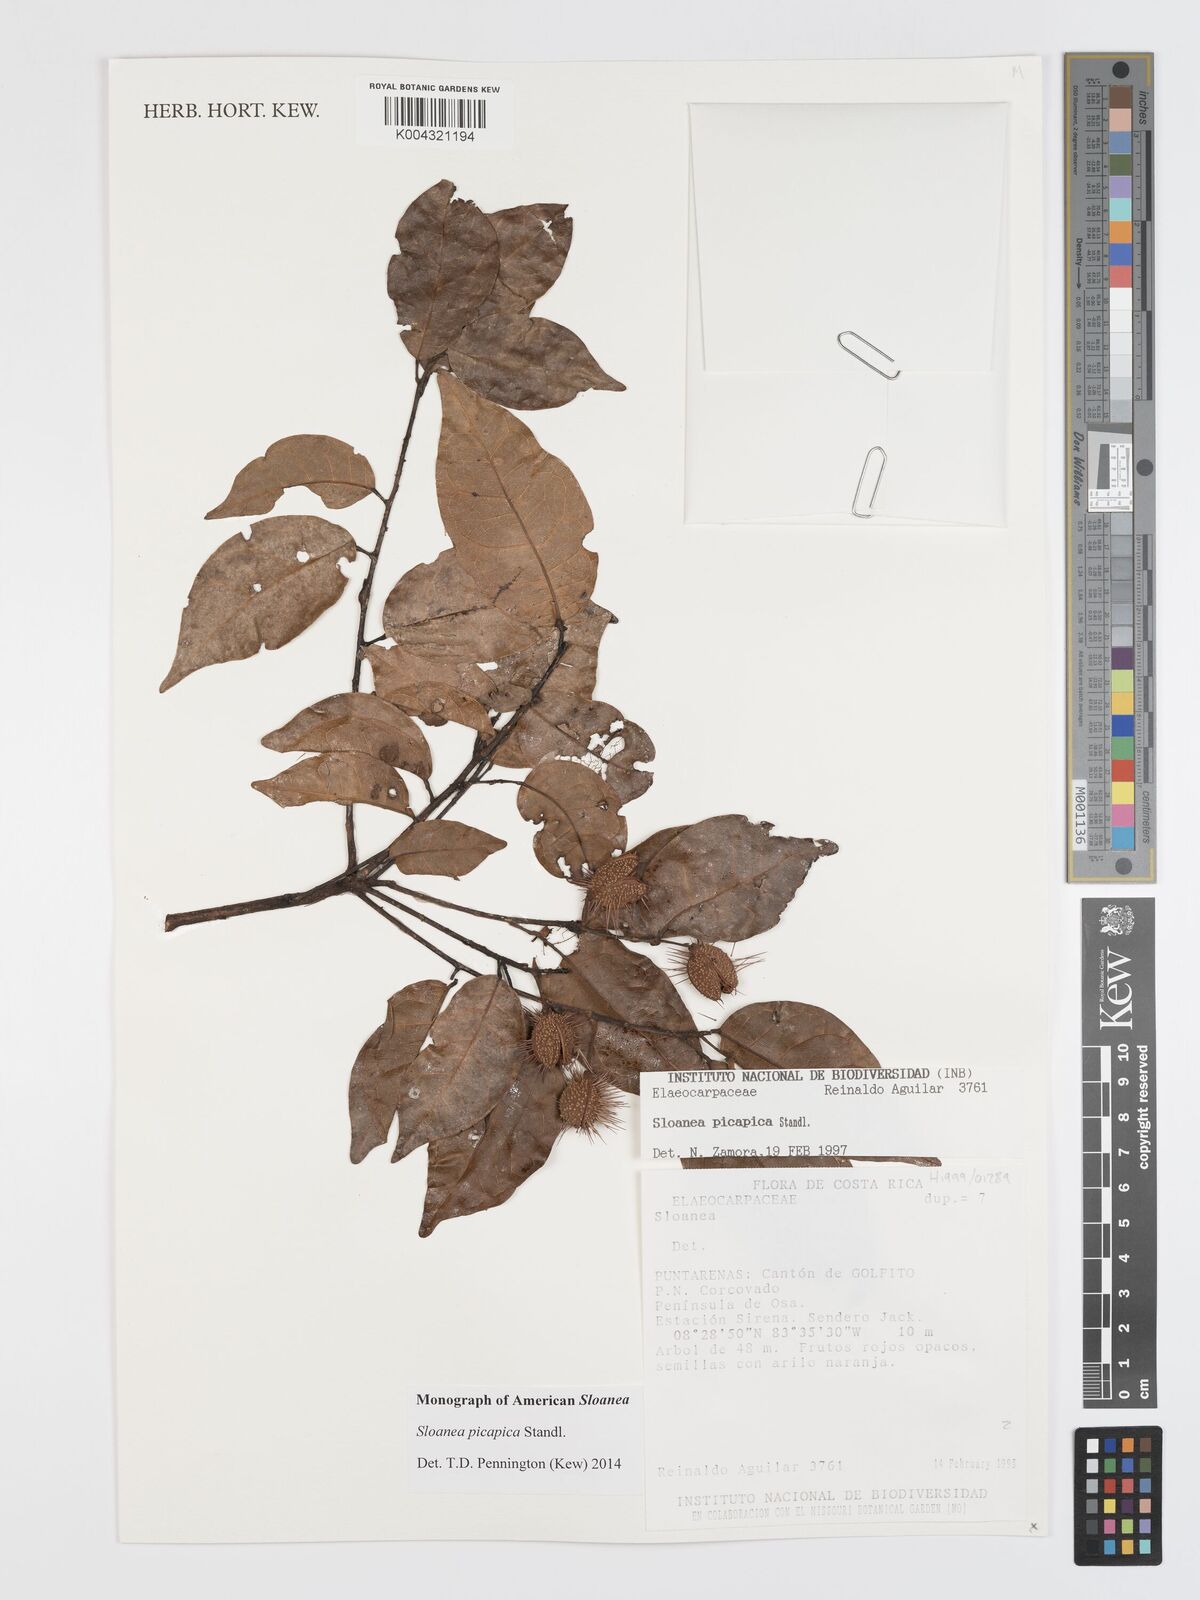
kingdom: Plantae
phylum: Tracheophyta
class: Magnoliopsida
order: Oxalidales
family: Elaeocarpaceae
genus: Sloanea
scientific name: Sloanea picapica
